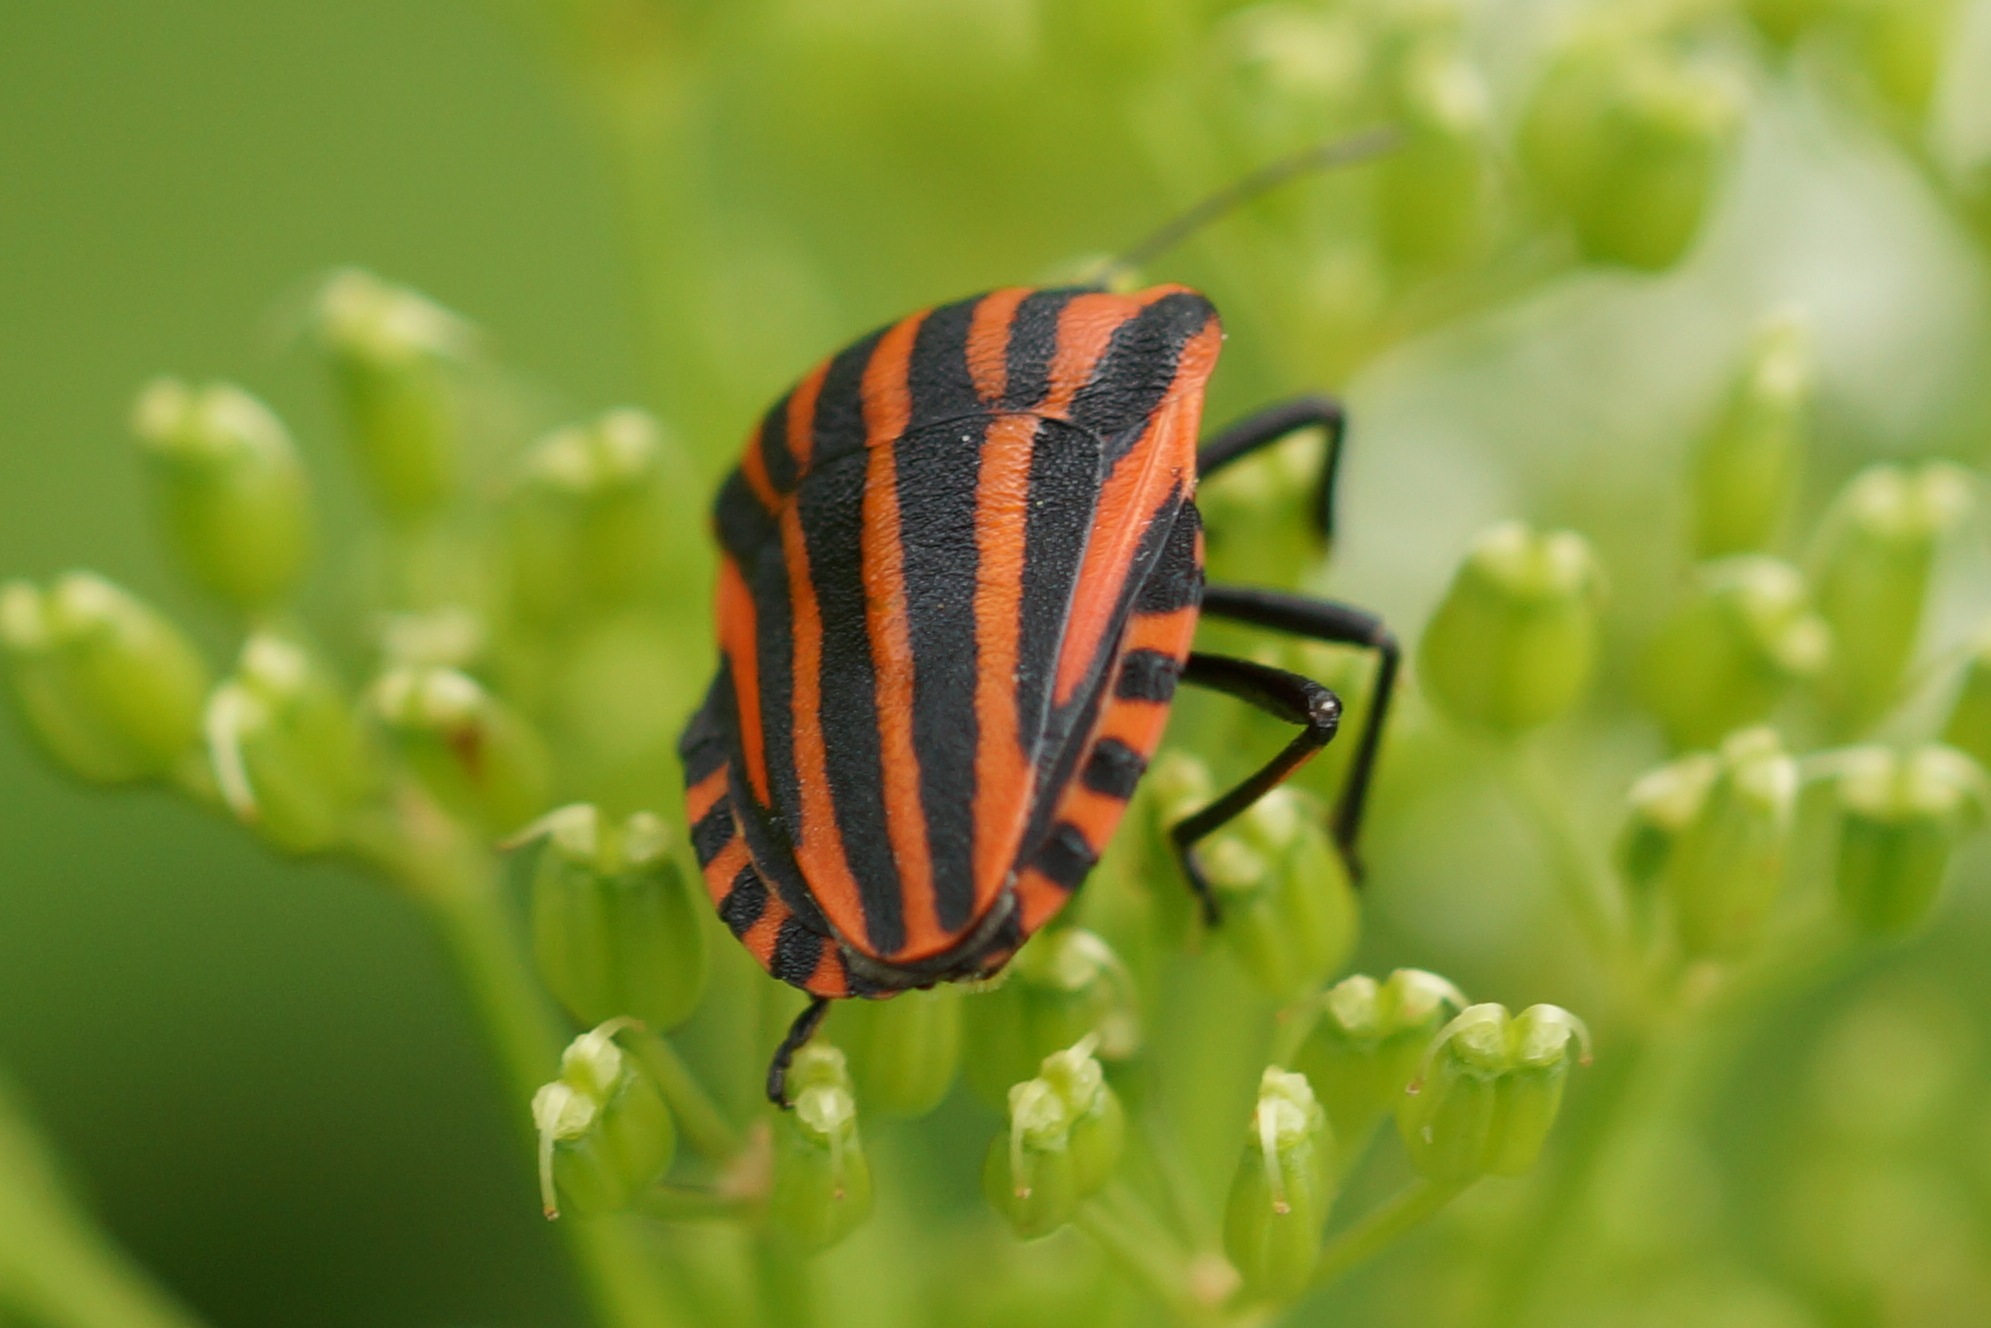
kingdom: Animalia
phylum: Arthropoda
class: Insecta
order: Hemiptera
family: Pentatomidae
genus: Graphosoma
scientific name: Graphosoma italicum
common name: Stribetæge
